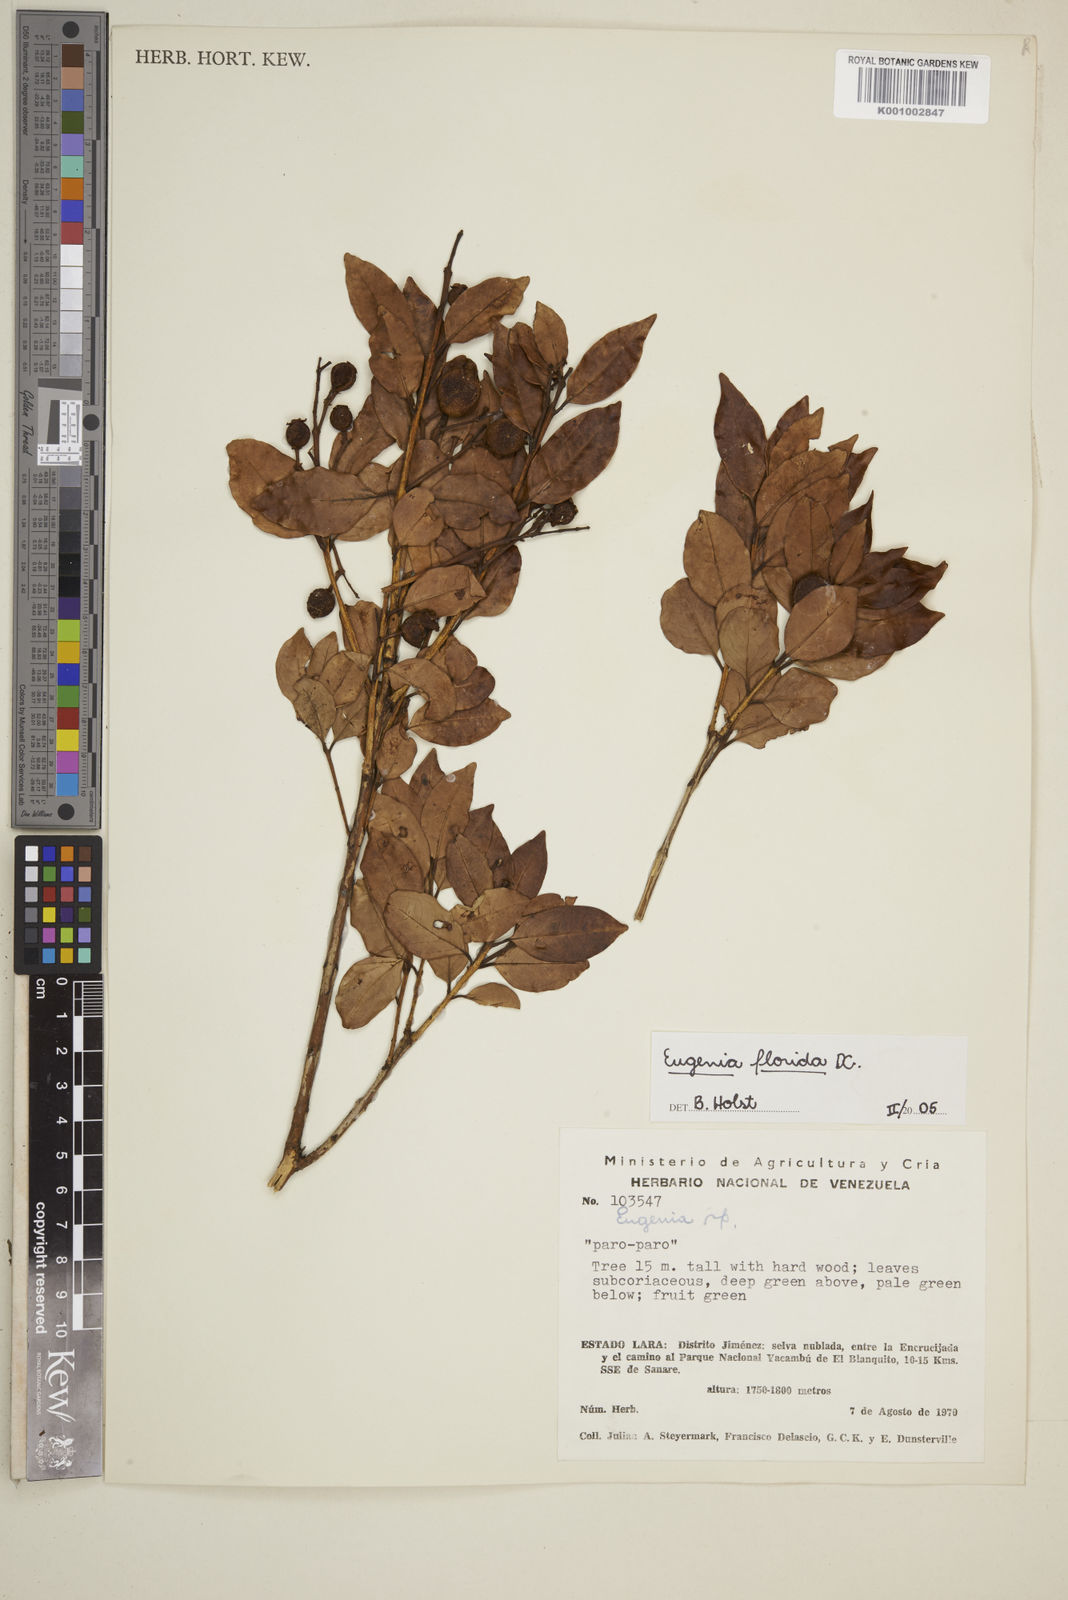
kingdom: Plantae
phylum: Tracheophyta
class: Magnoliopsida
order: Myrtales
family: Myrtaceae
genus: Eugenia
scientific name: Eugenia florida
